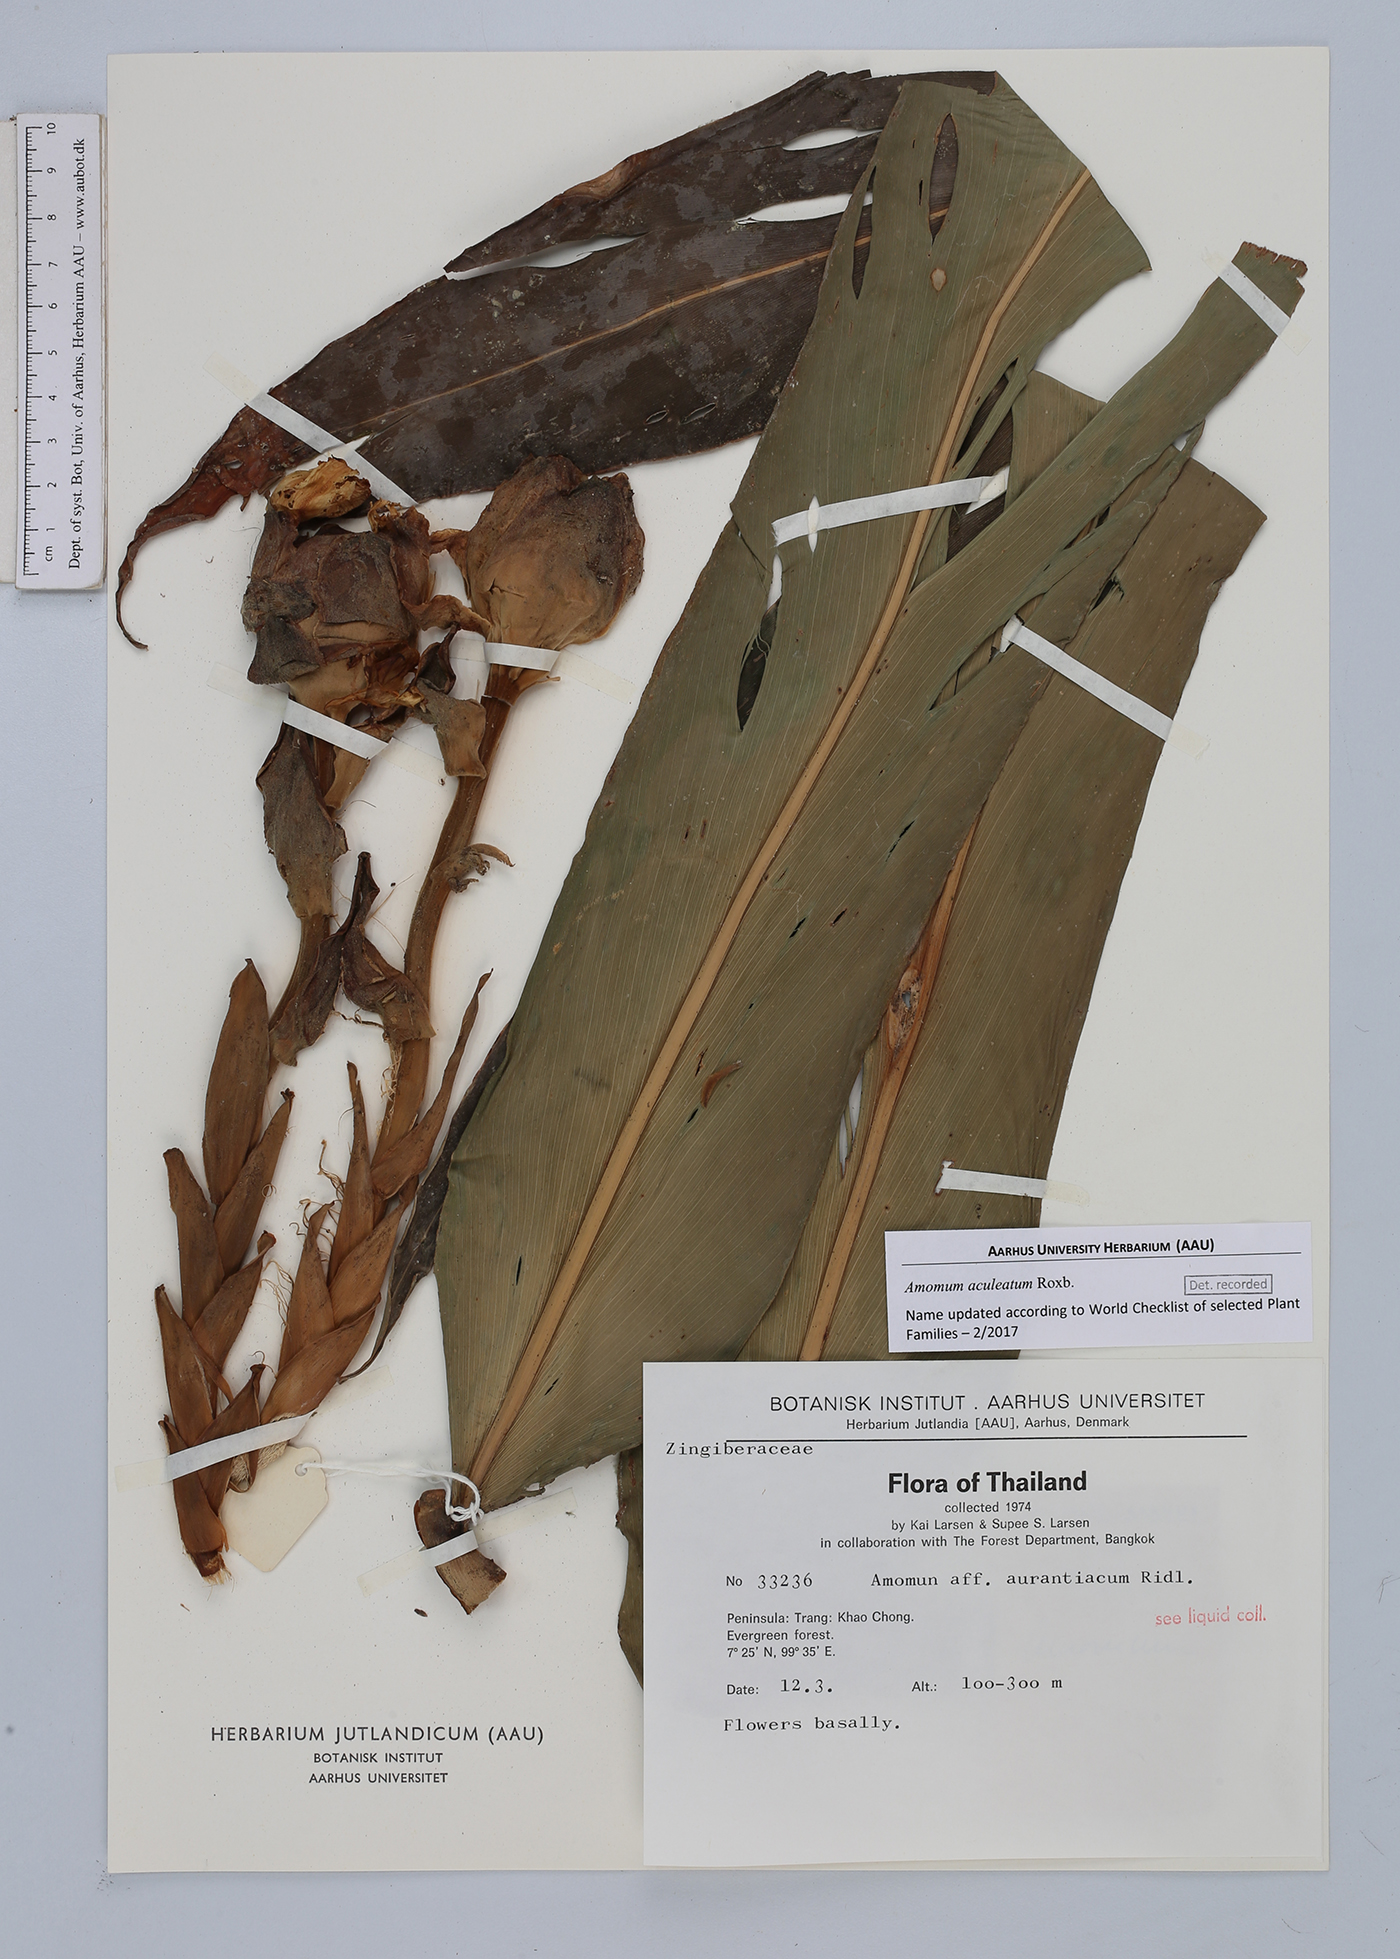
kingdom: Plantae
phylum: Tracheophyta
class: Liliopsida
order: Zingiberales
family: Zingiberaceae
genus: Meistera
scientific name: Meistera aculeata
